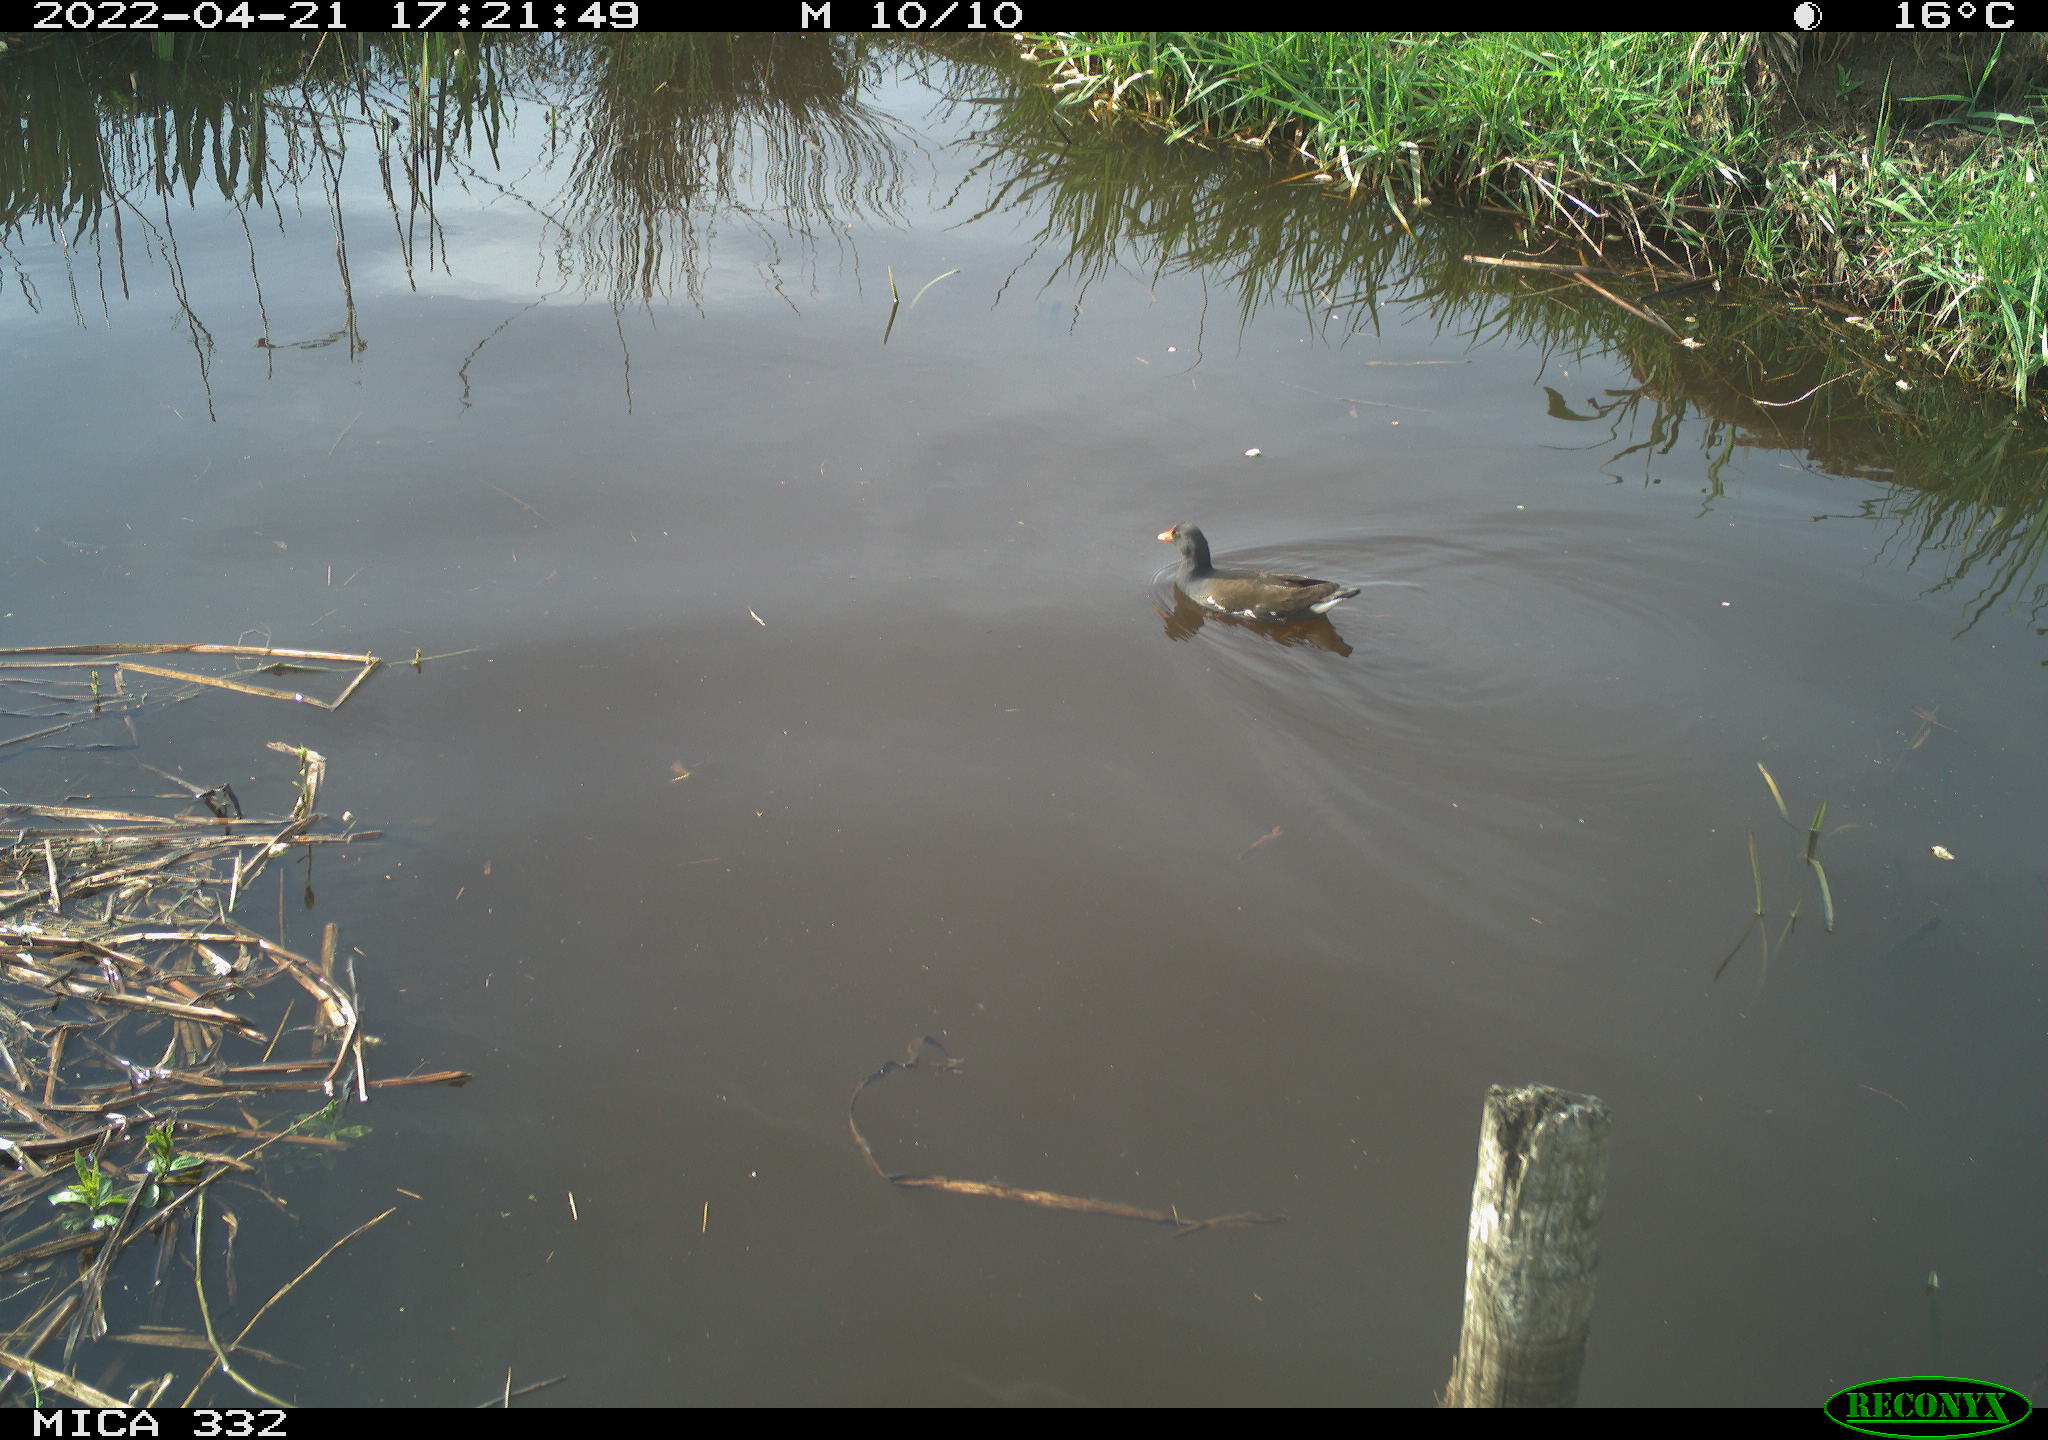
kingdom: Animalia
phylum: Chordata
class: Aves
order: Gruiformes
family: Rallidae
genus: Gallinula
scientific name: Gallinula chloropus
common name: Common moorhen
